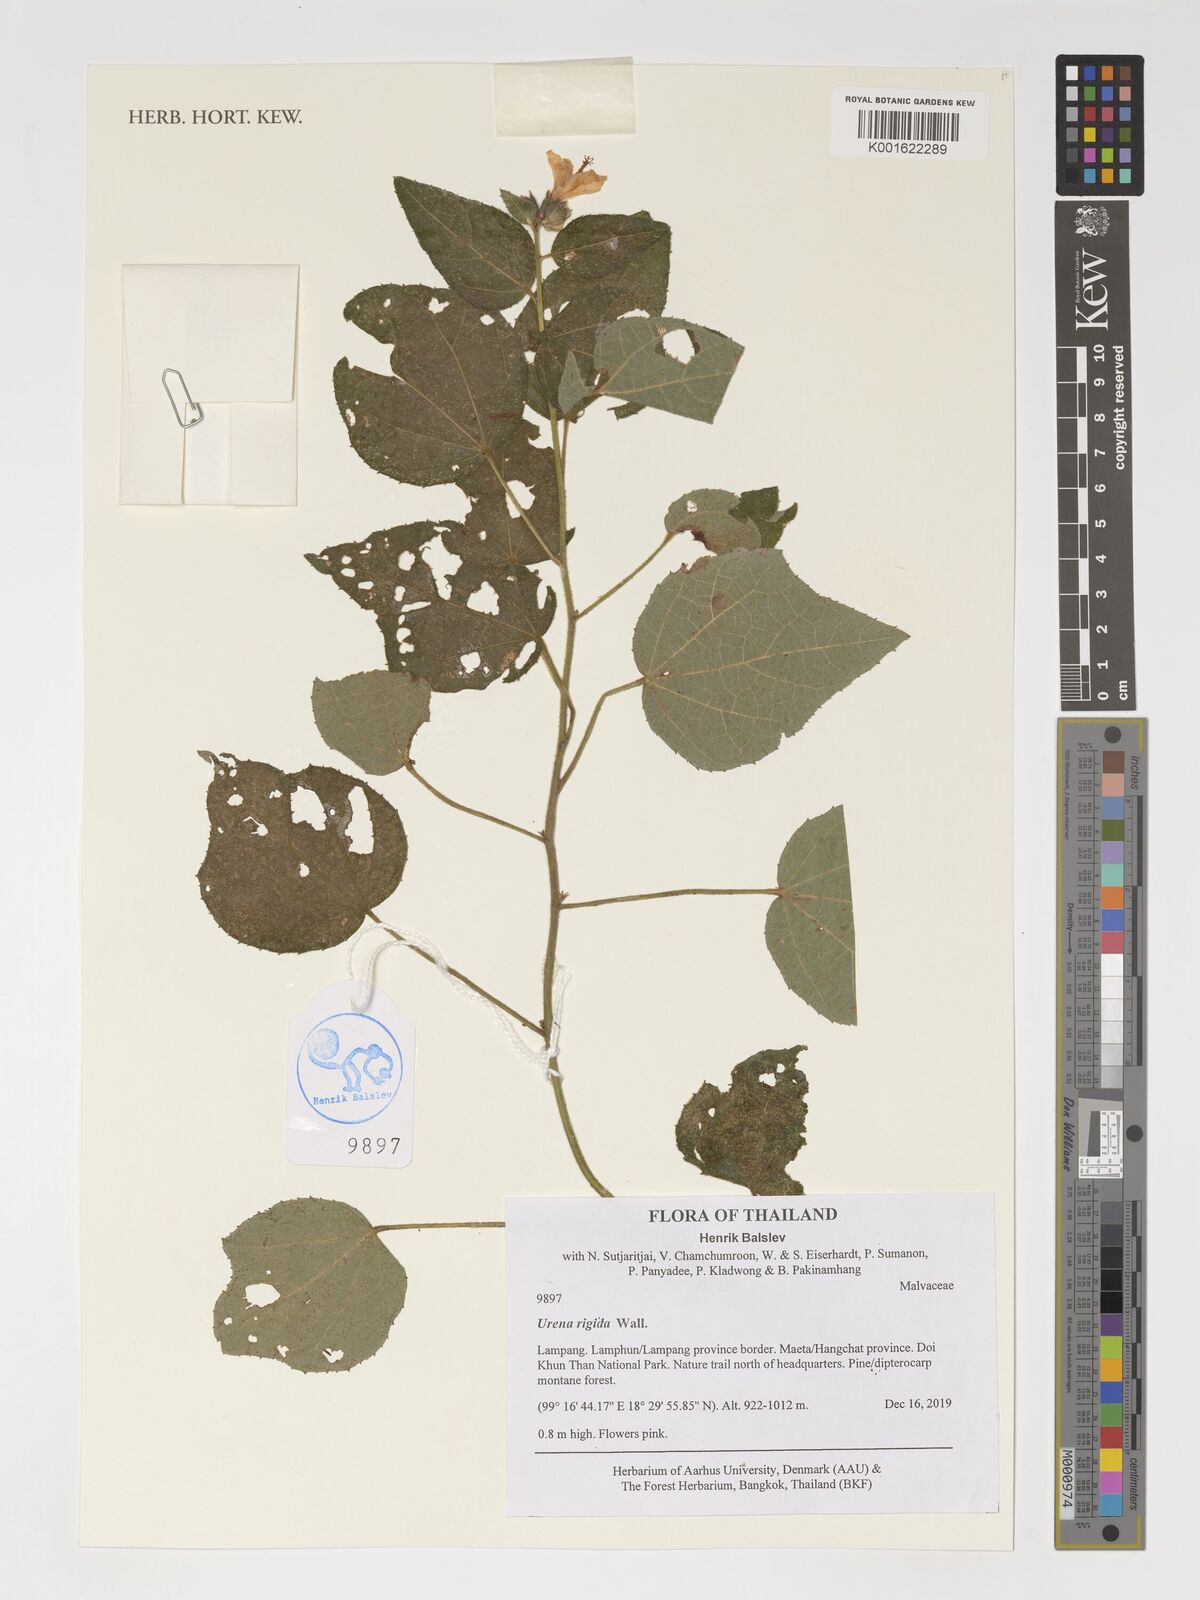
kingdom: Plantae
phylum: Tracheophyta
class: Magnoliopsida
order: Malvales
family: Malvaceae
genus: Urena
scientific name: Urena repanda
